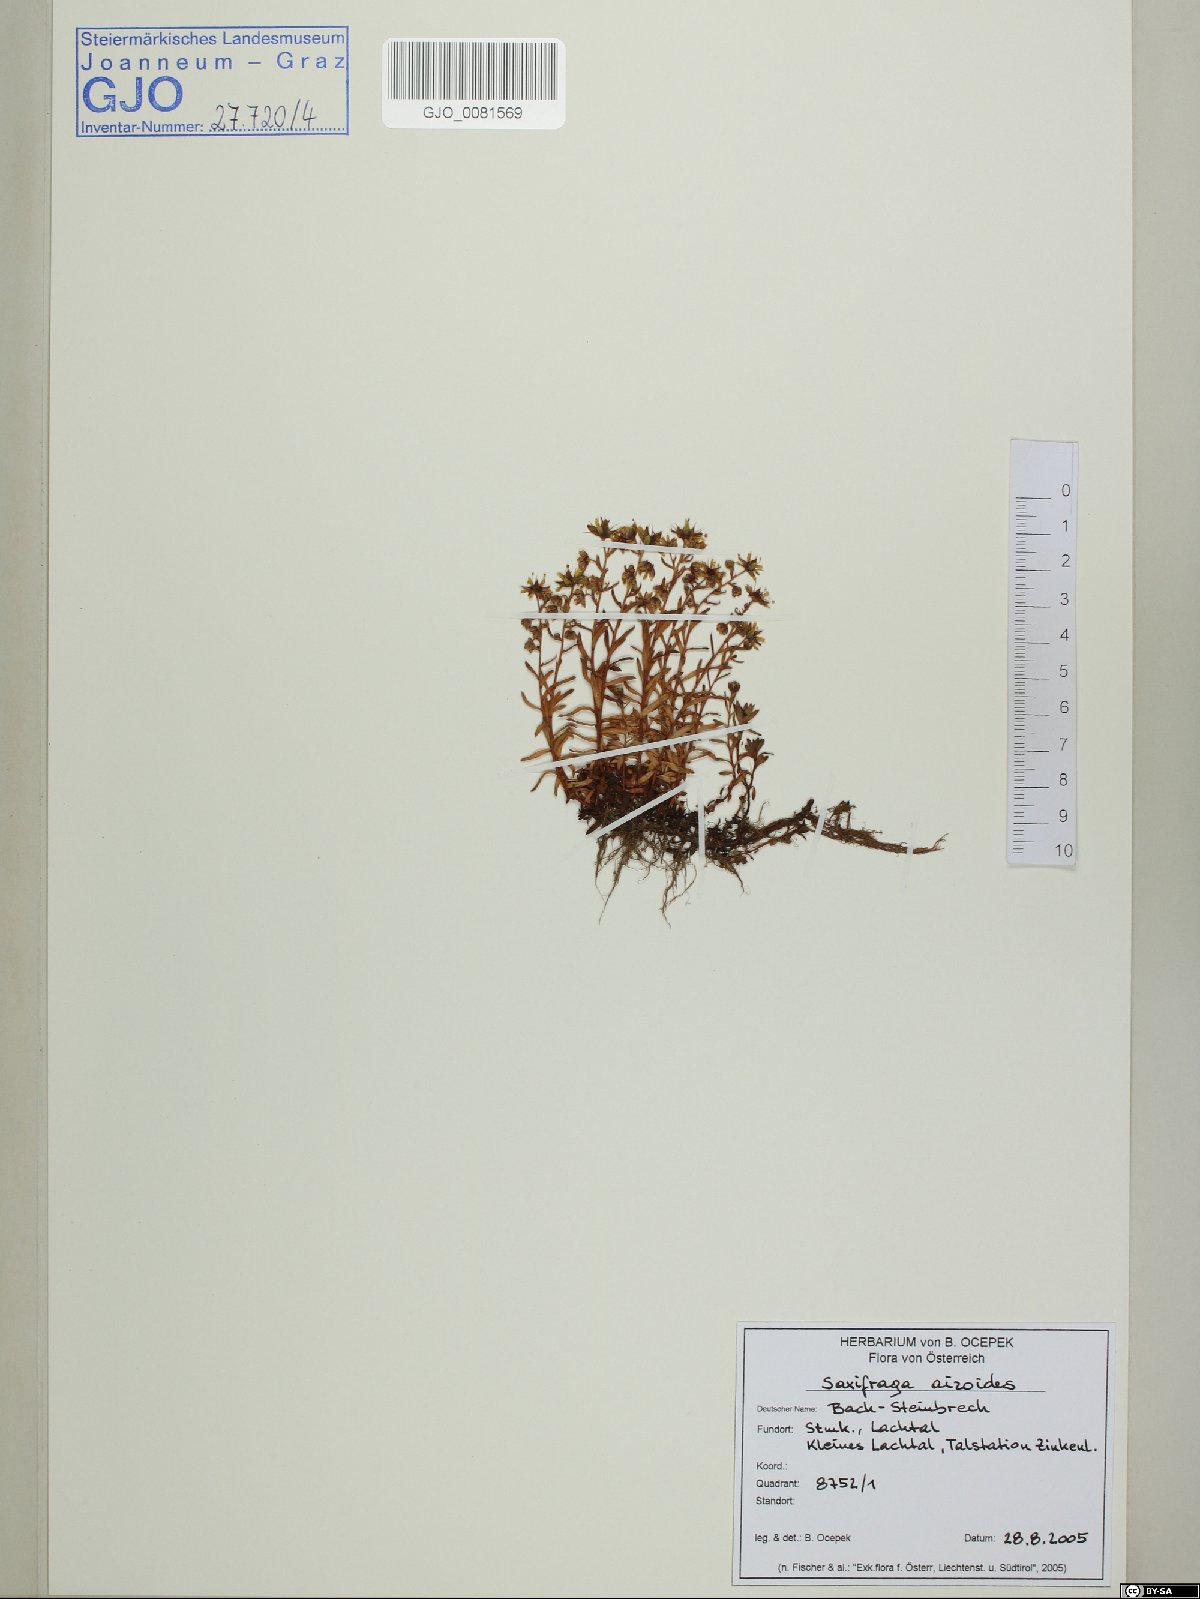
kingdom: Plantae
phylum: Tracheophyta
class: Magnoliopsida
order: Saxifragales
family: Saxifragaceae
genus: Saxifraga
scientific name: Saxifraga aizoides
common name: Yellow mountain saxifrage
